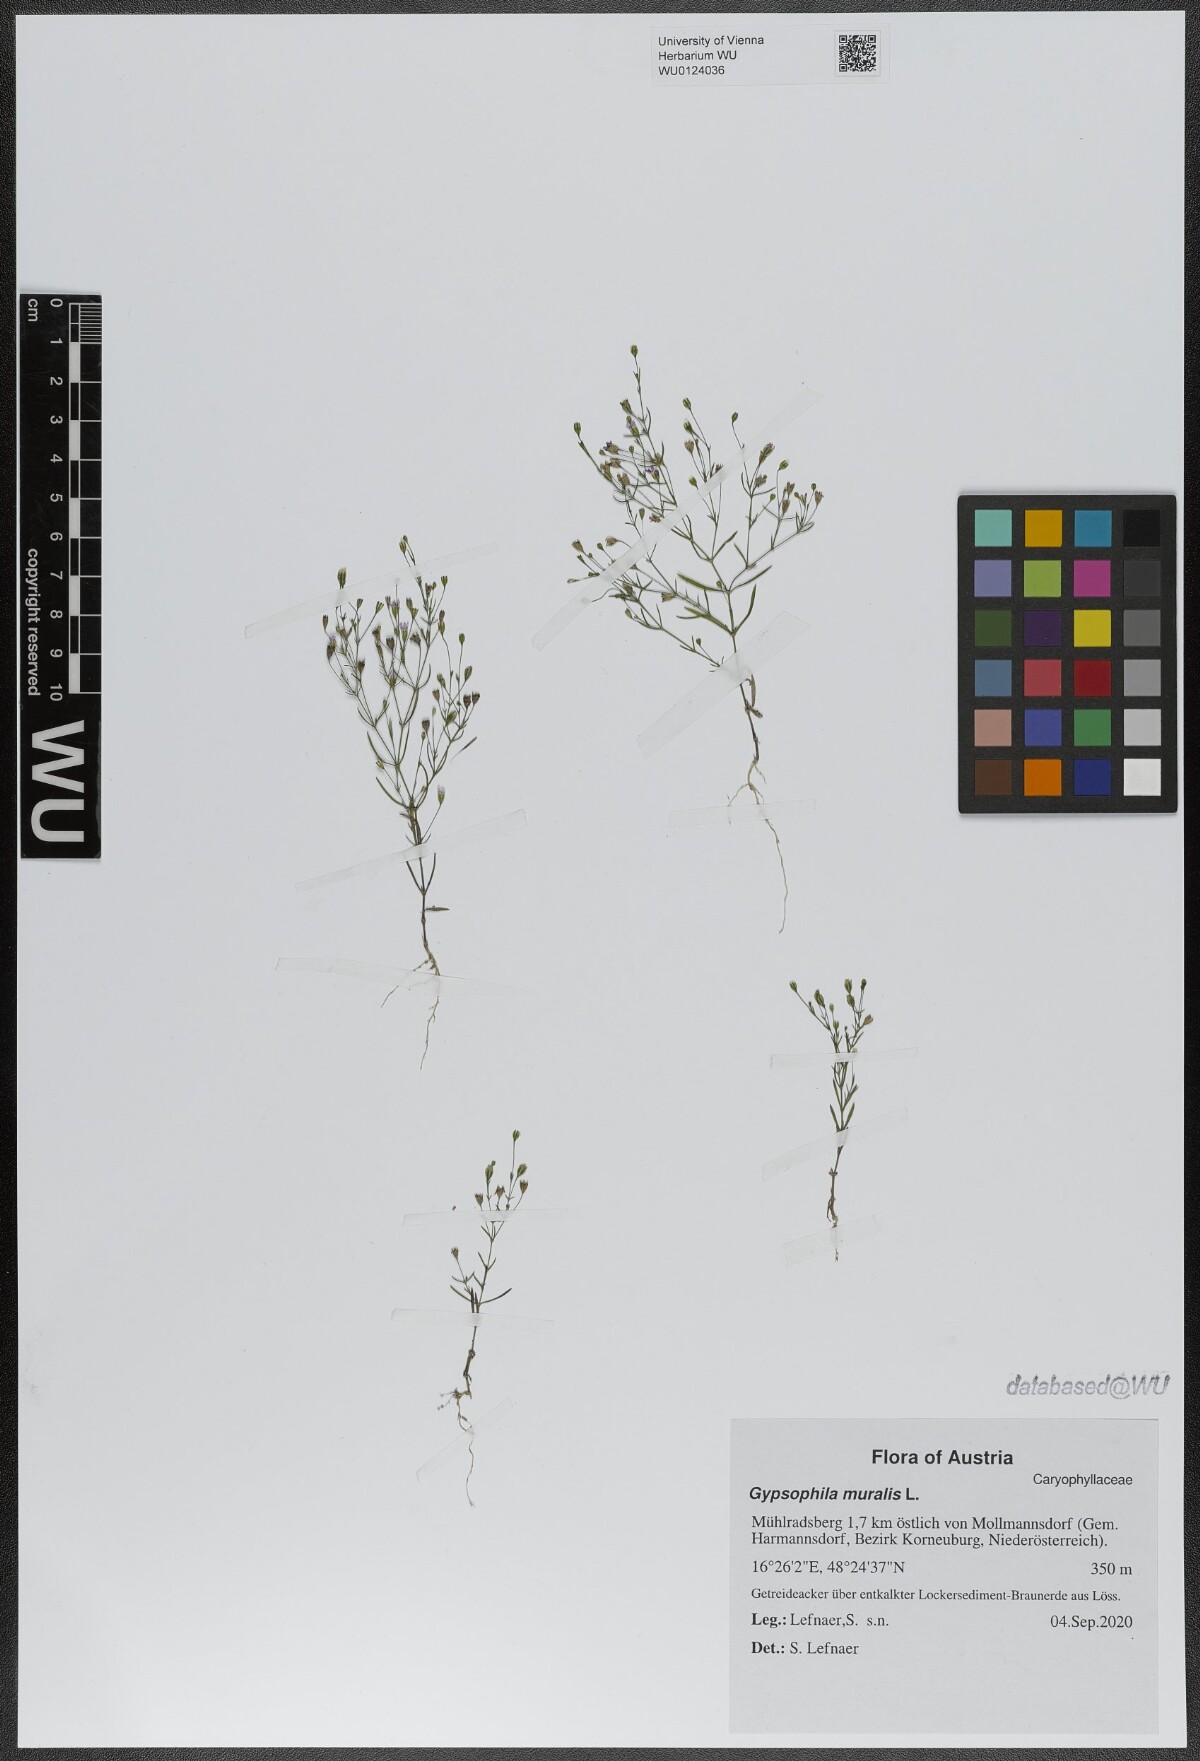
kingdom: Plantae
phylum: Tracheophyta
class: Magnoliopsida
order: Caryophyllales
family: Caryophyllaceae
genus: Psammophiliella
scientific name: Psammophiliella muralis
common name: Cushion baby's-breath
